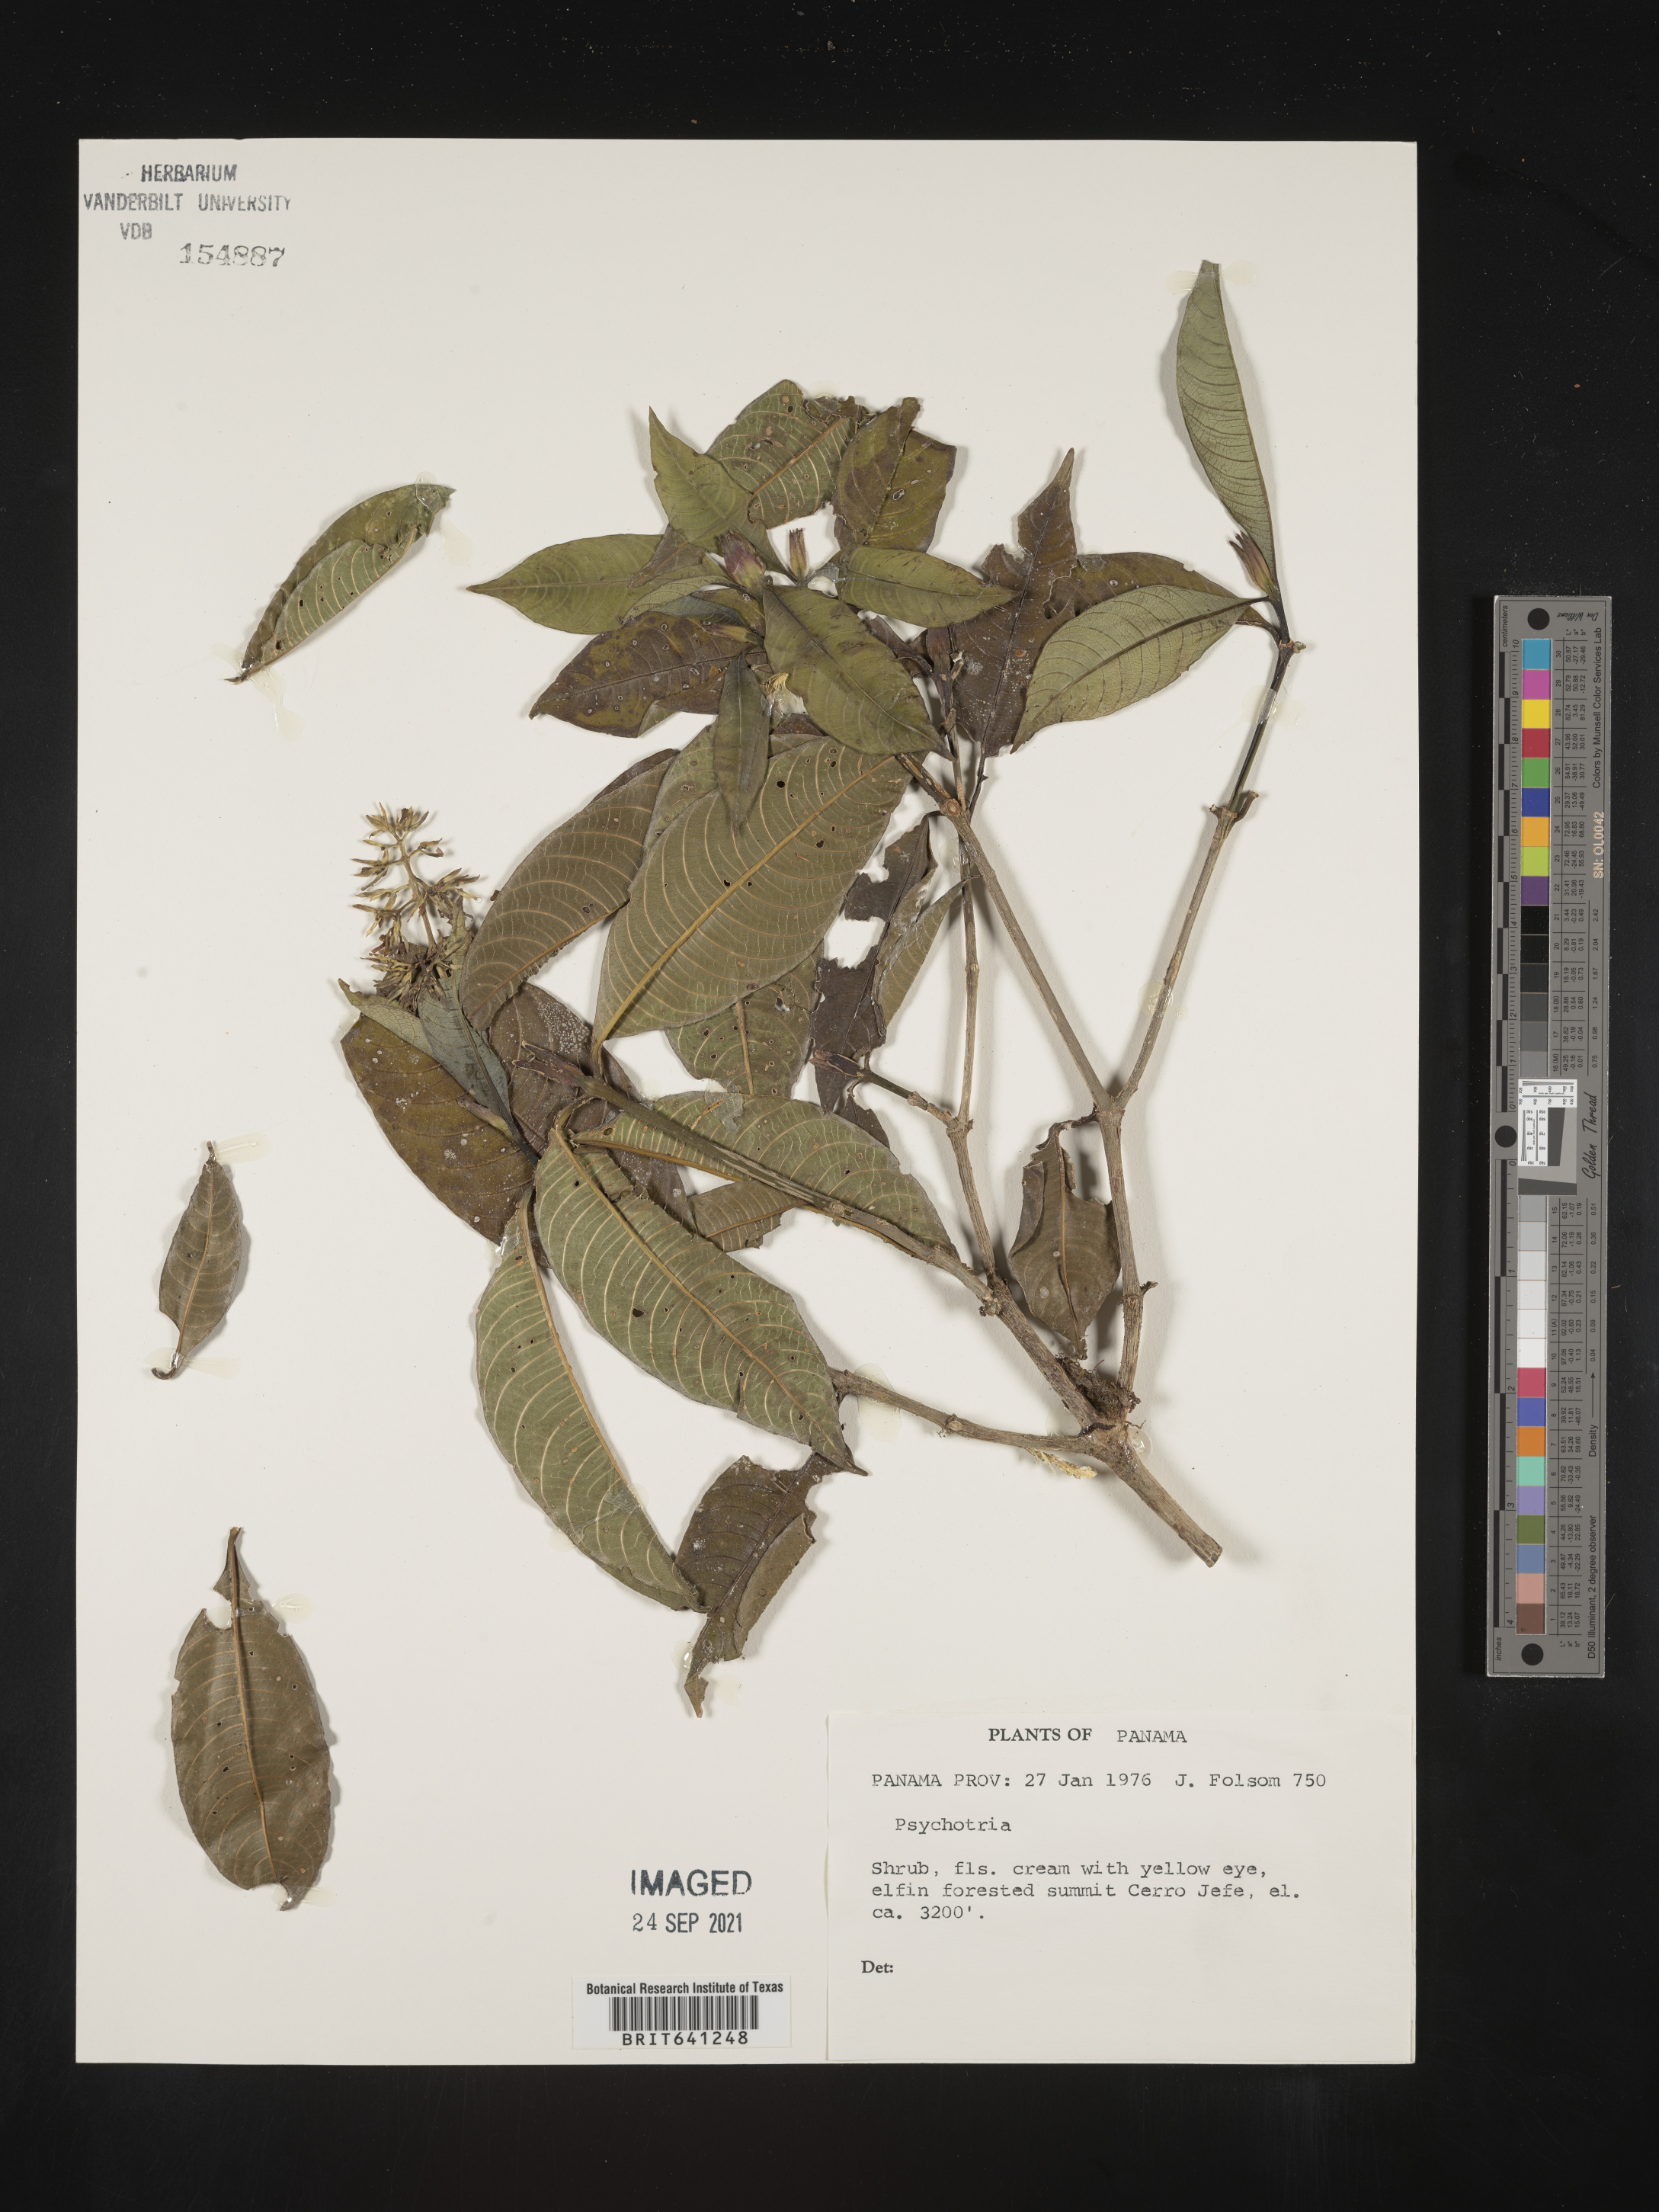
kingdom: Plantae
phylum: Tracheophyta
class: Magnoliopsida
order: Gentianales
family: Rubiaceae
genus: Psychotria
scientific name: Psychotria
